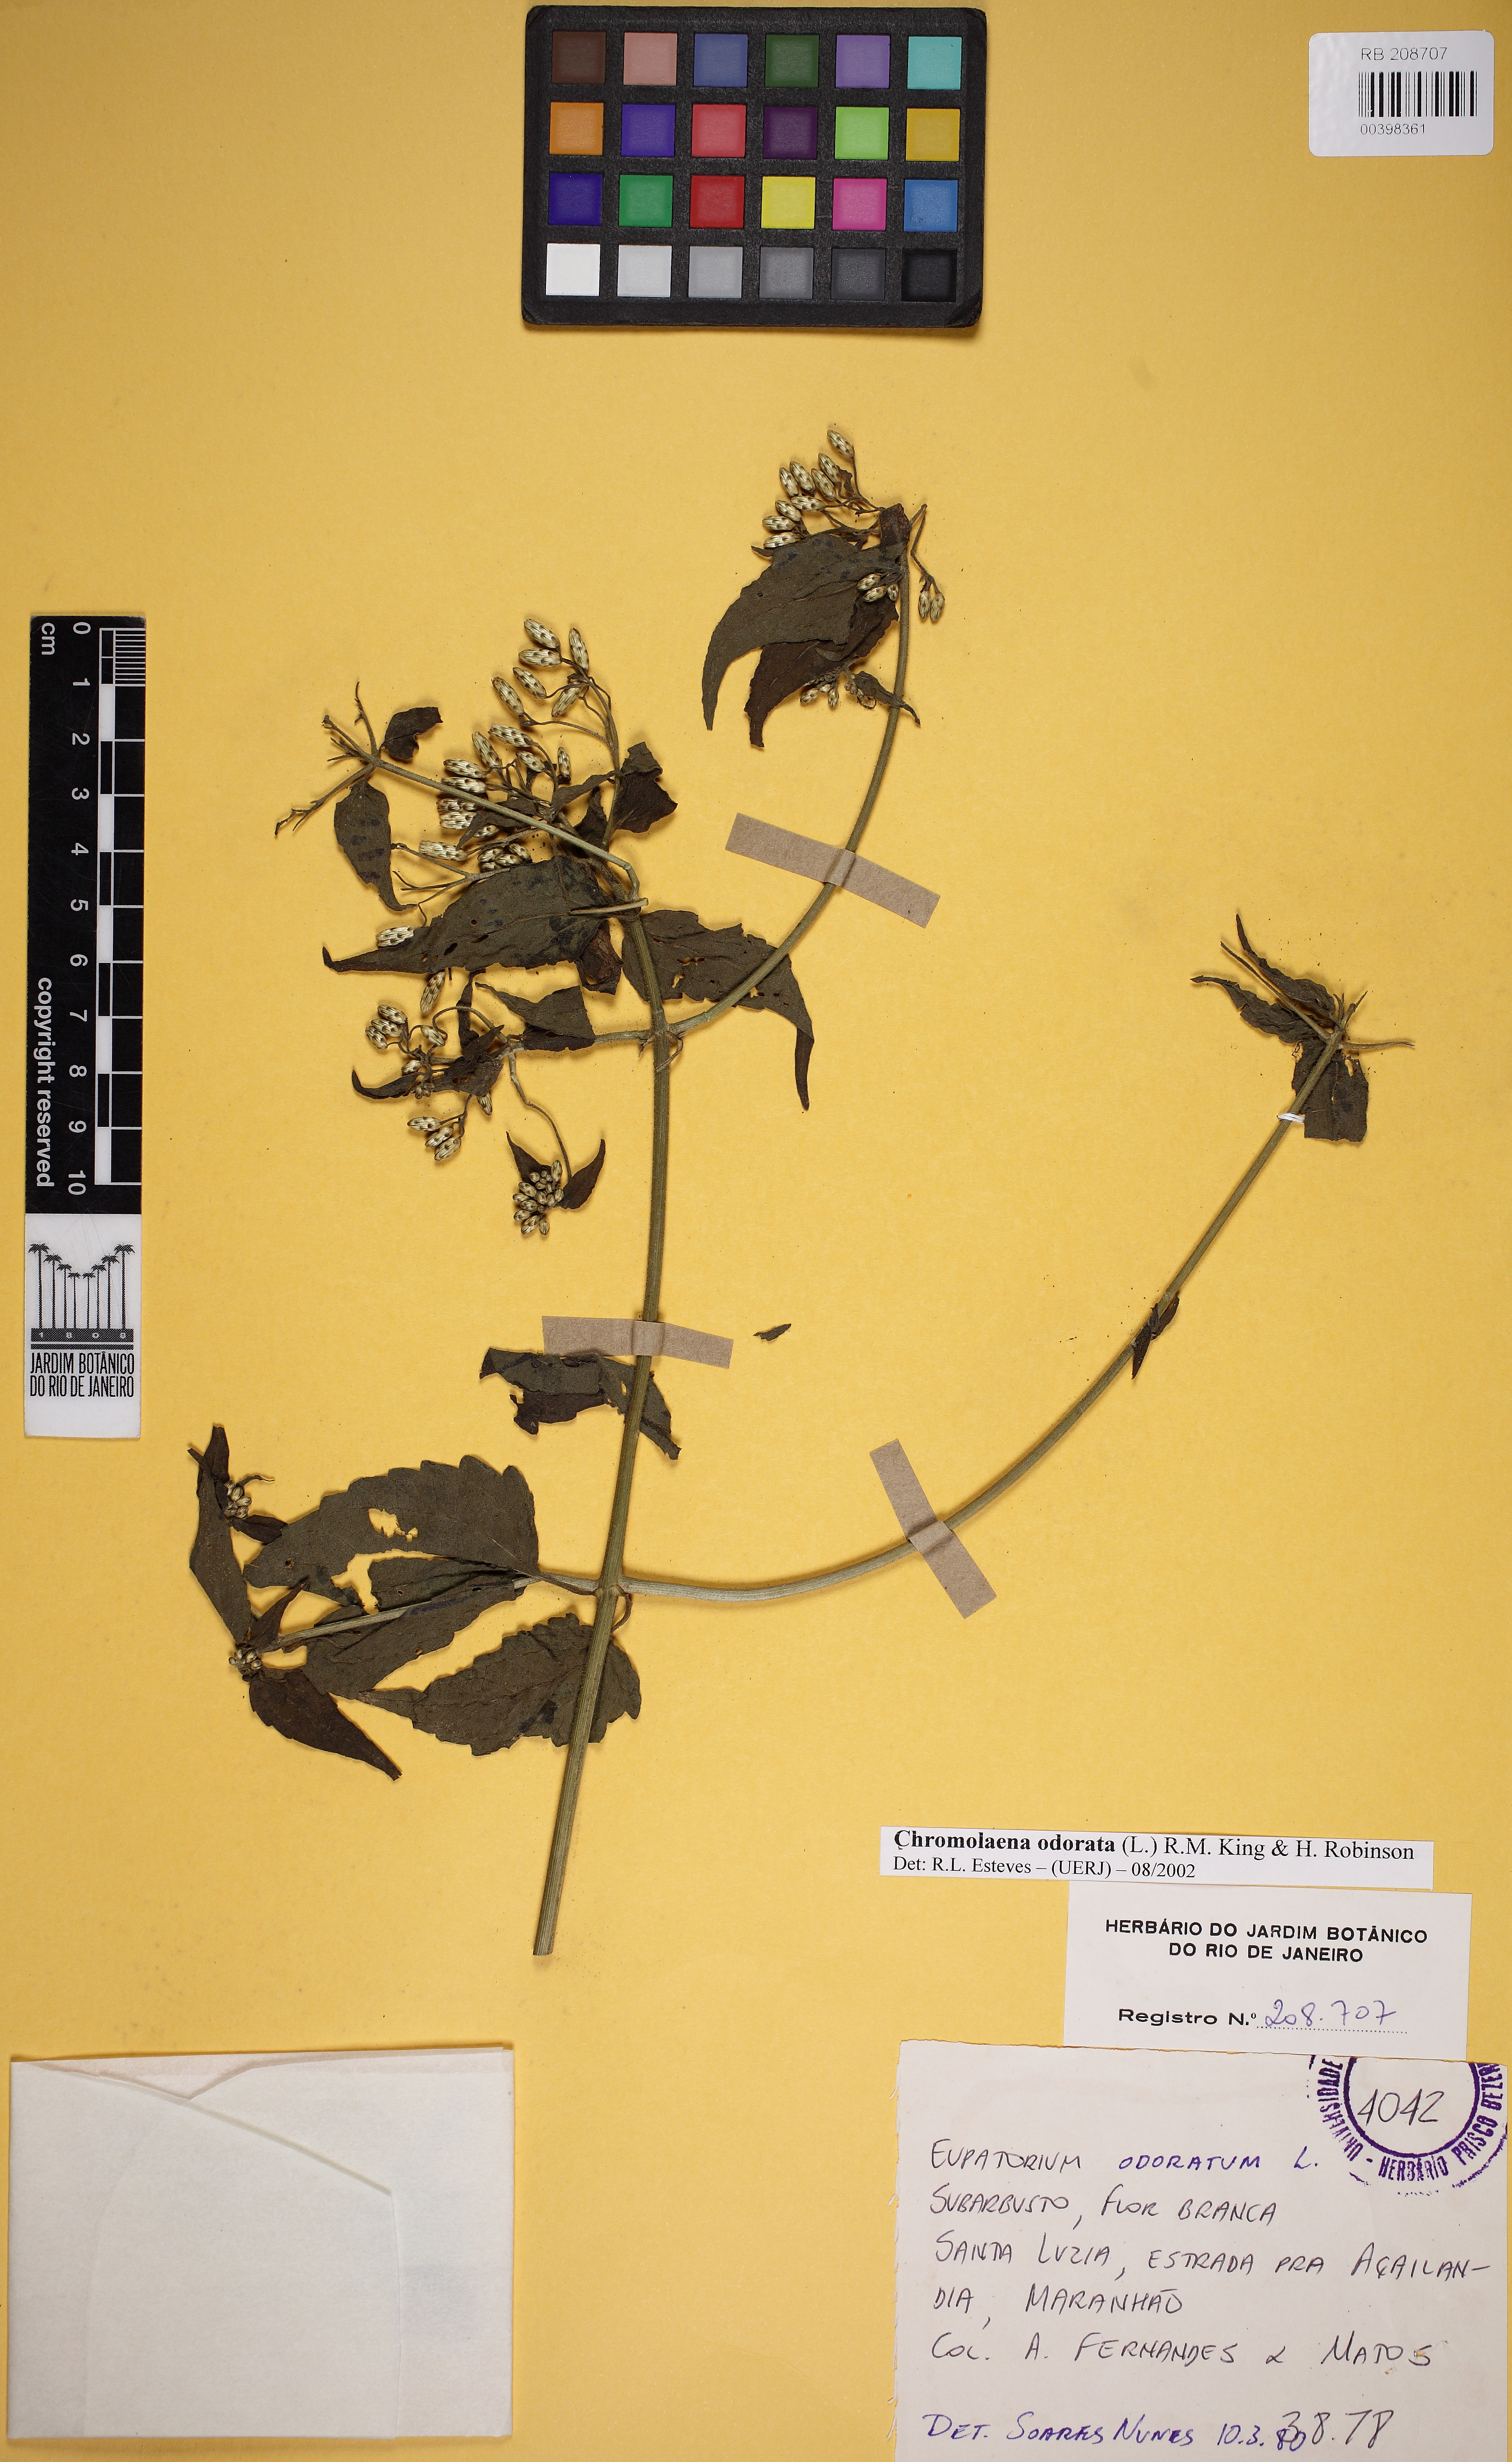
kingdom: Plantae
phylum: Tracheophyta
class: Magnoliopsida
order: Asterales
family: Asteraceae
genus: Chromolaena
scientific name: Chromolaena odorata
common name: Siamweed
